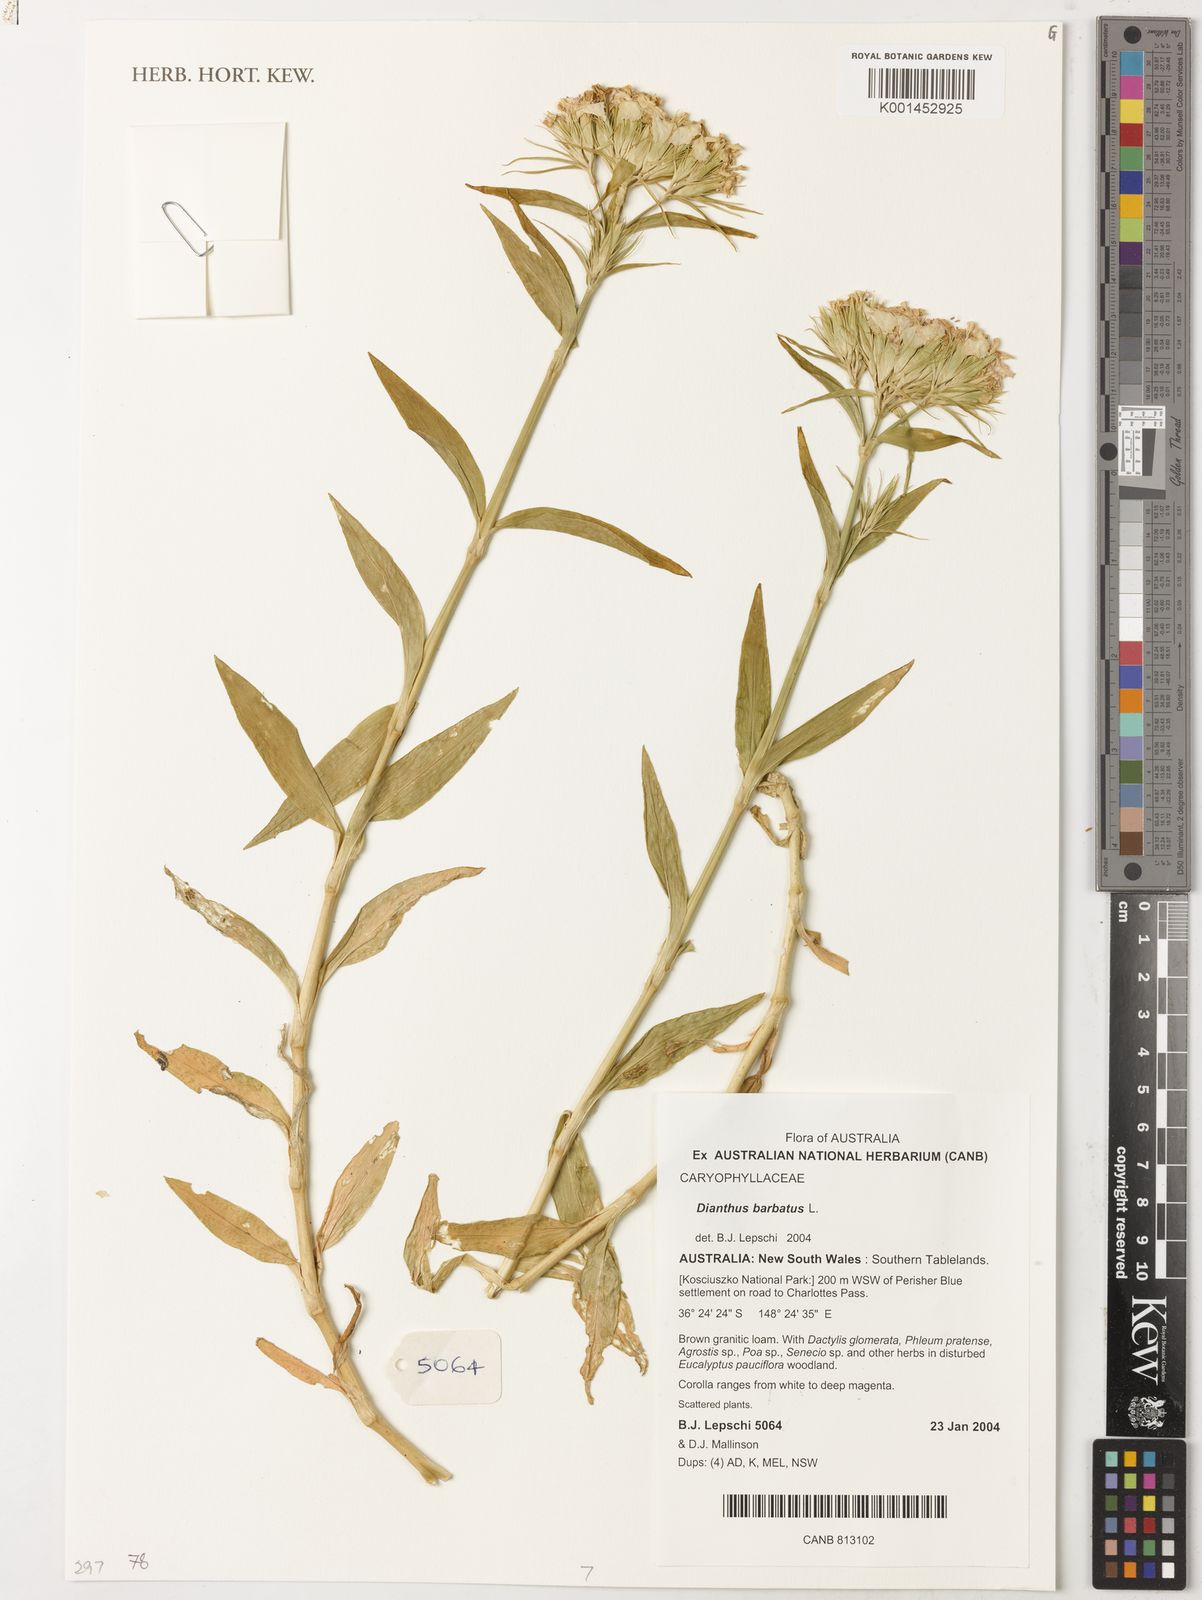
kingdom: Plantae
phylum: Tracheophyta
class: Magnoliopsida
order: Caryophyllales
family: Caryophyllaceae
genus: Dianthus
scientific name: Dianthus barbatus
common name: Sweet-william
